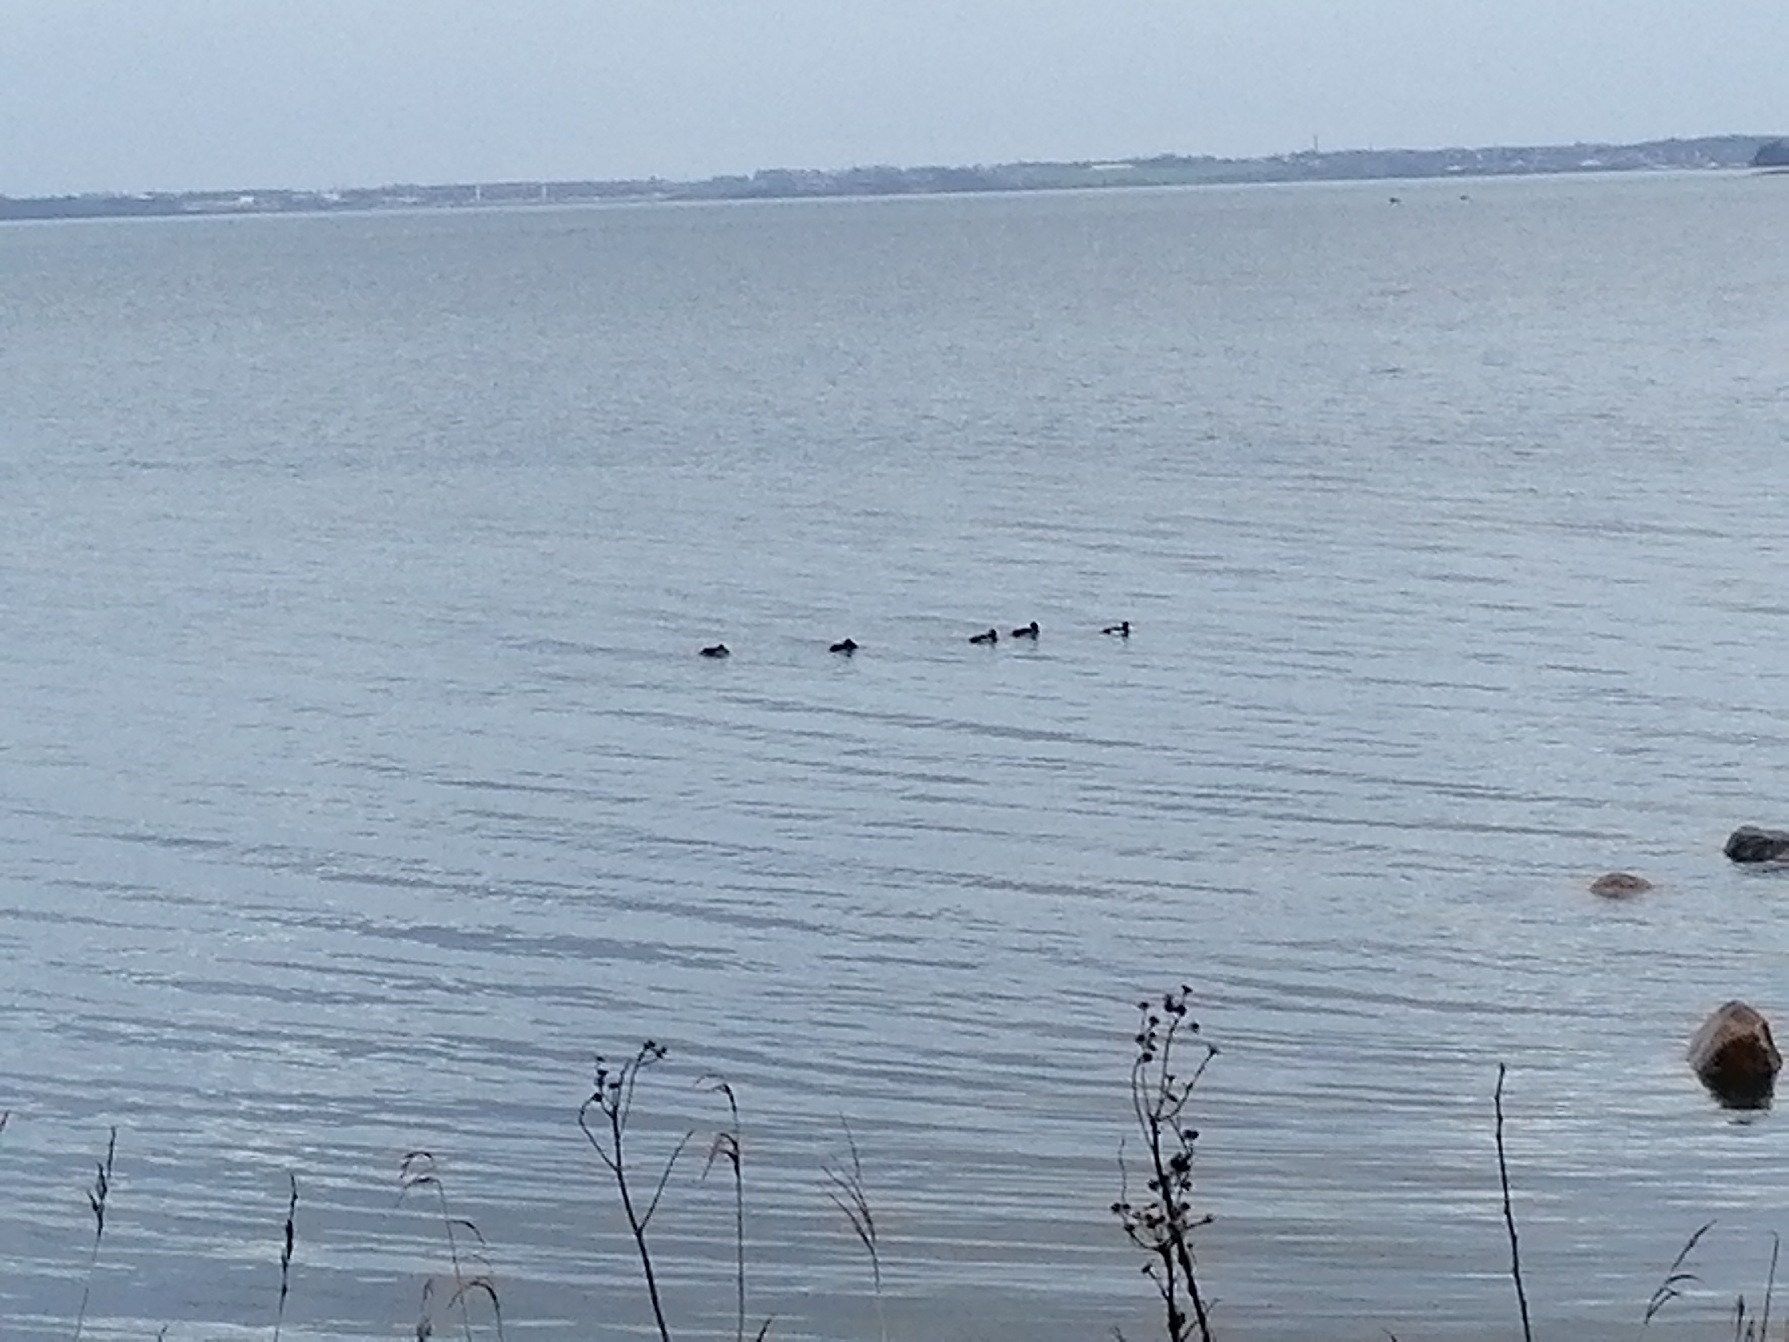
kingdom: Animalia
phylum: Chordata
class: Aves
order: Anseriformes
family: Anatidae
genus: Aythya
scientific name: Aythya fuligula
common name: Troldand
